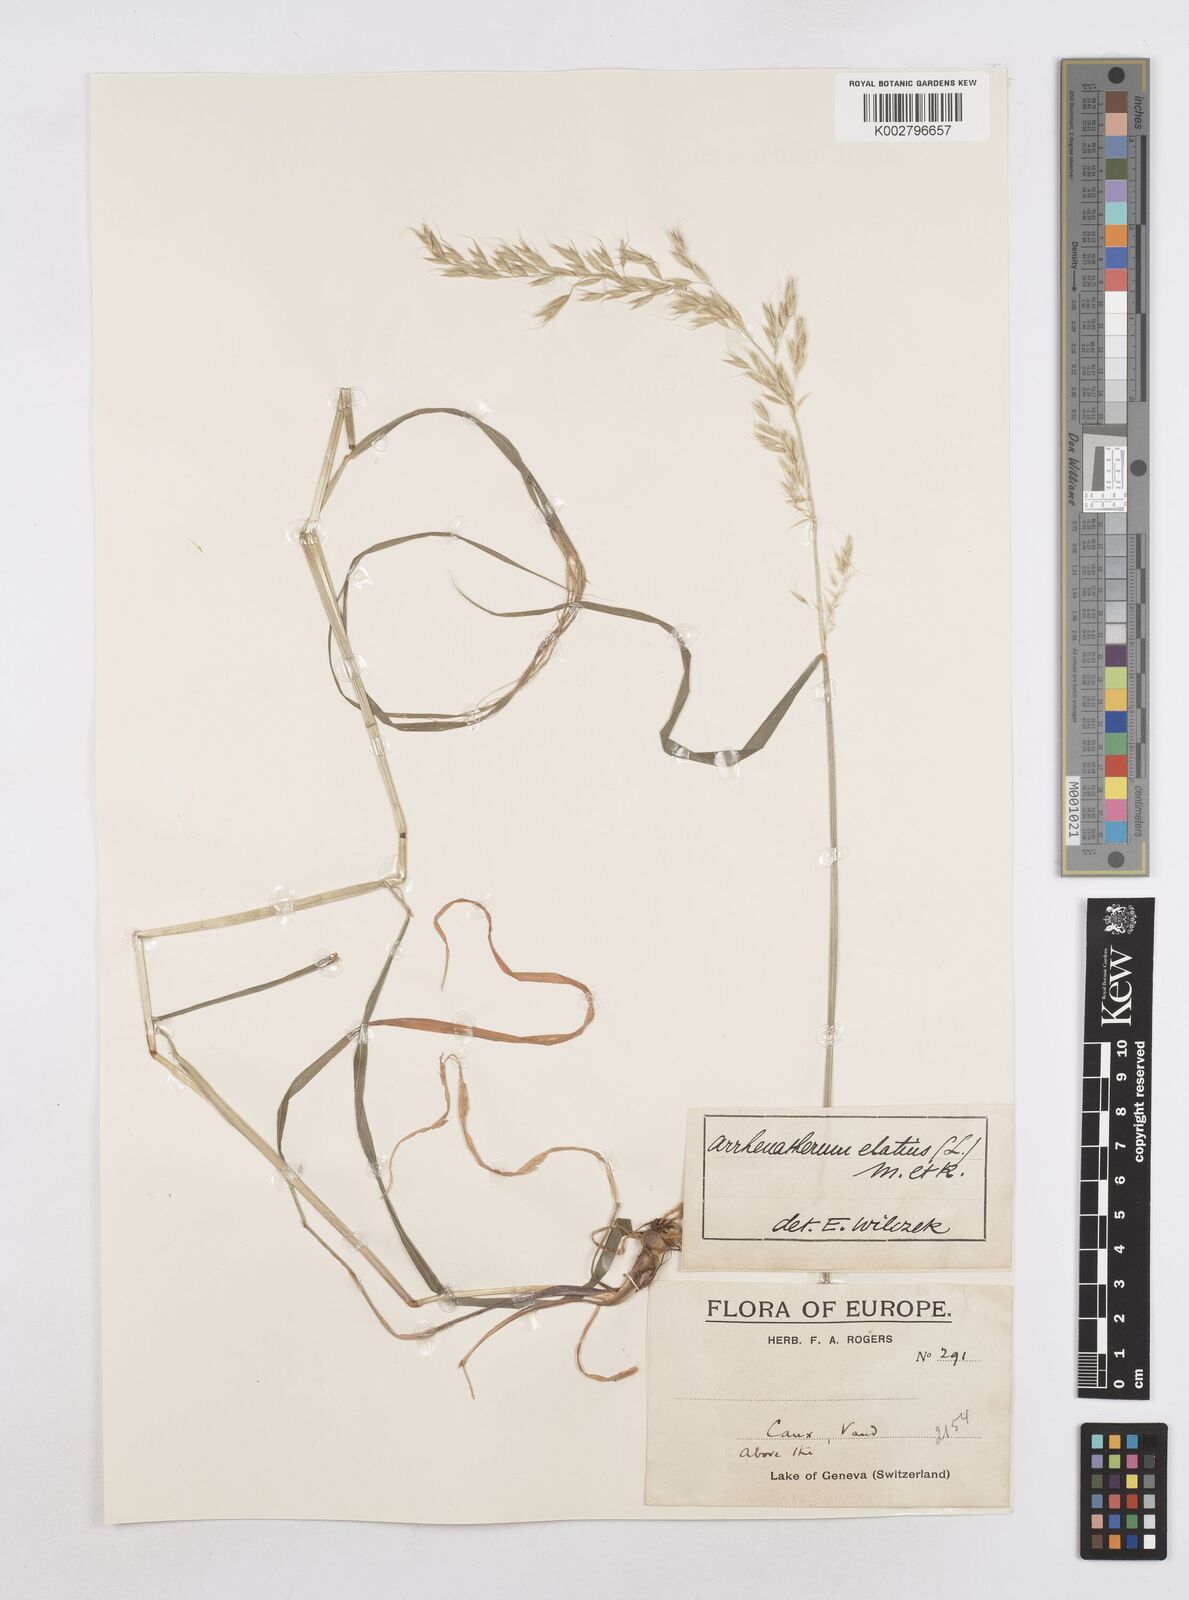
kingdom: Plantae
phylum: Tracheophyta
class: Liliopsida
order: Poales
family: Poaceae
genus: Arrhenatherum
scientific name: Arrhenatherum elatius
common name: Tall oatgrass
